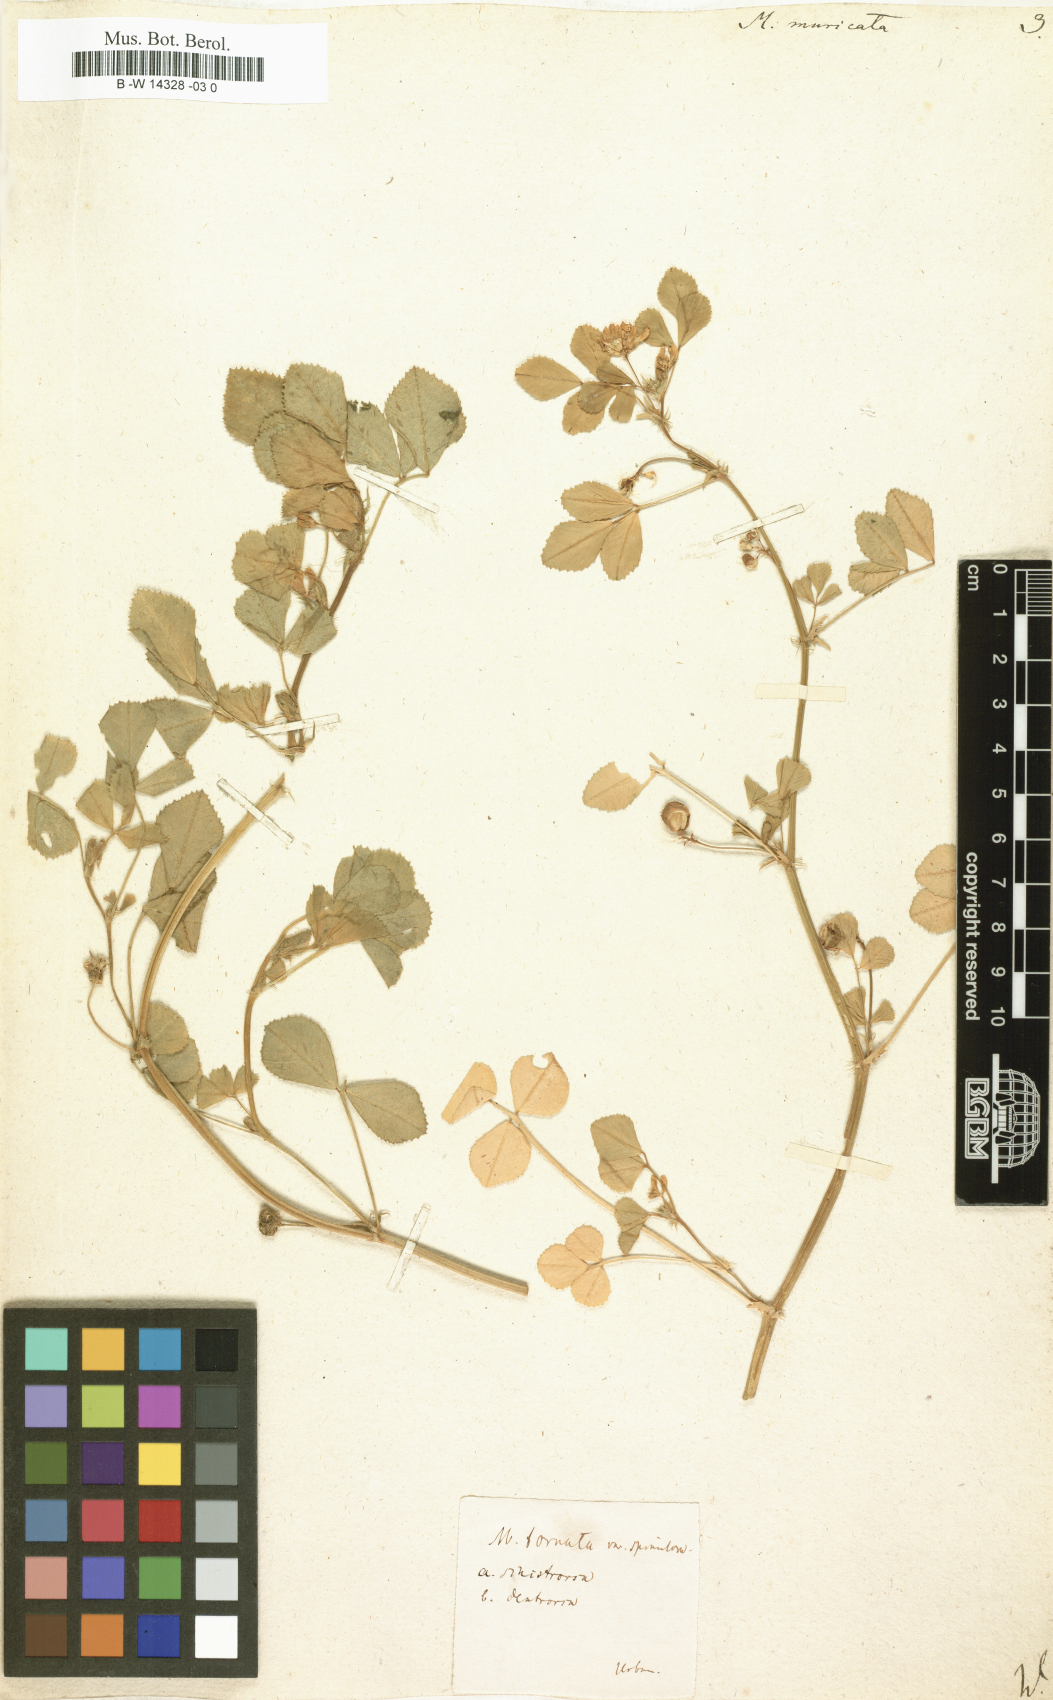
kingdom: Plantae
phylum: Tracheophyta
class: Magnoliopsida
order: Fabales
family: Fabaceae
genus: Medicago
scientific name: Medicago tornata
